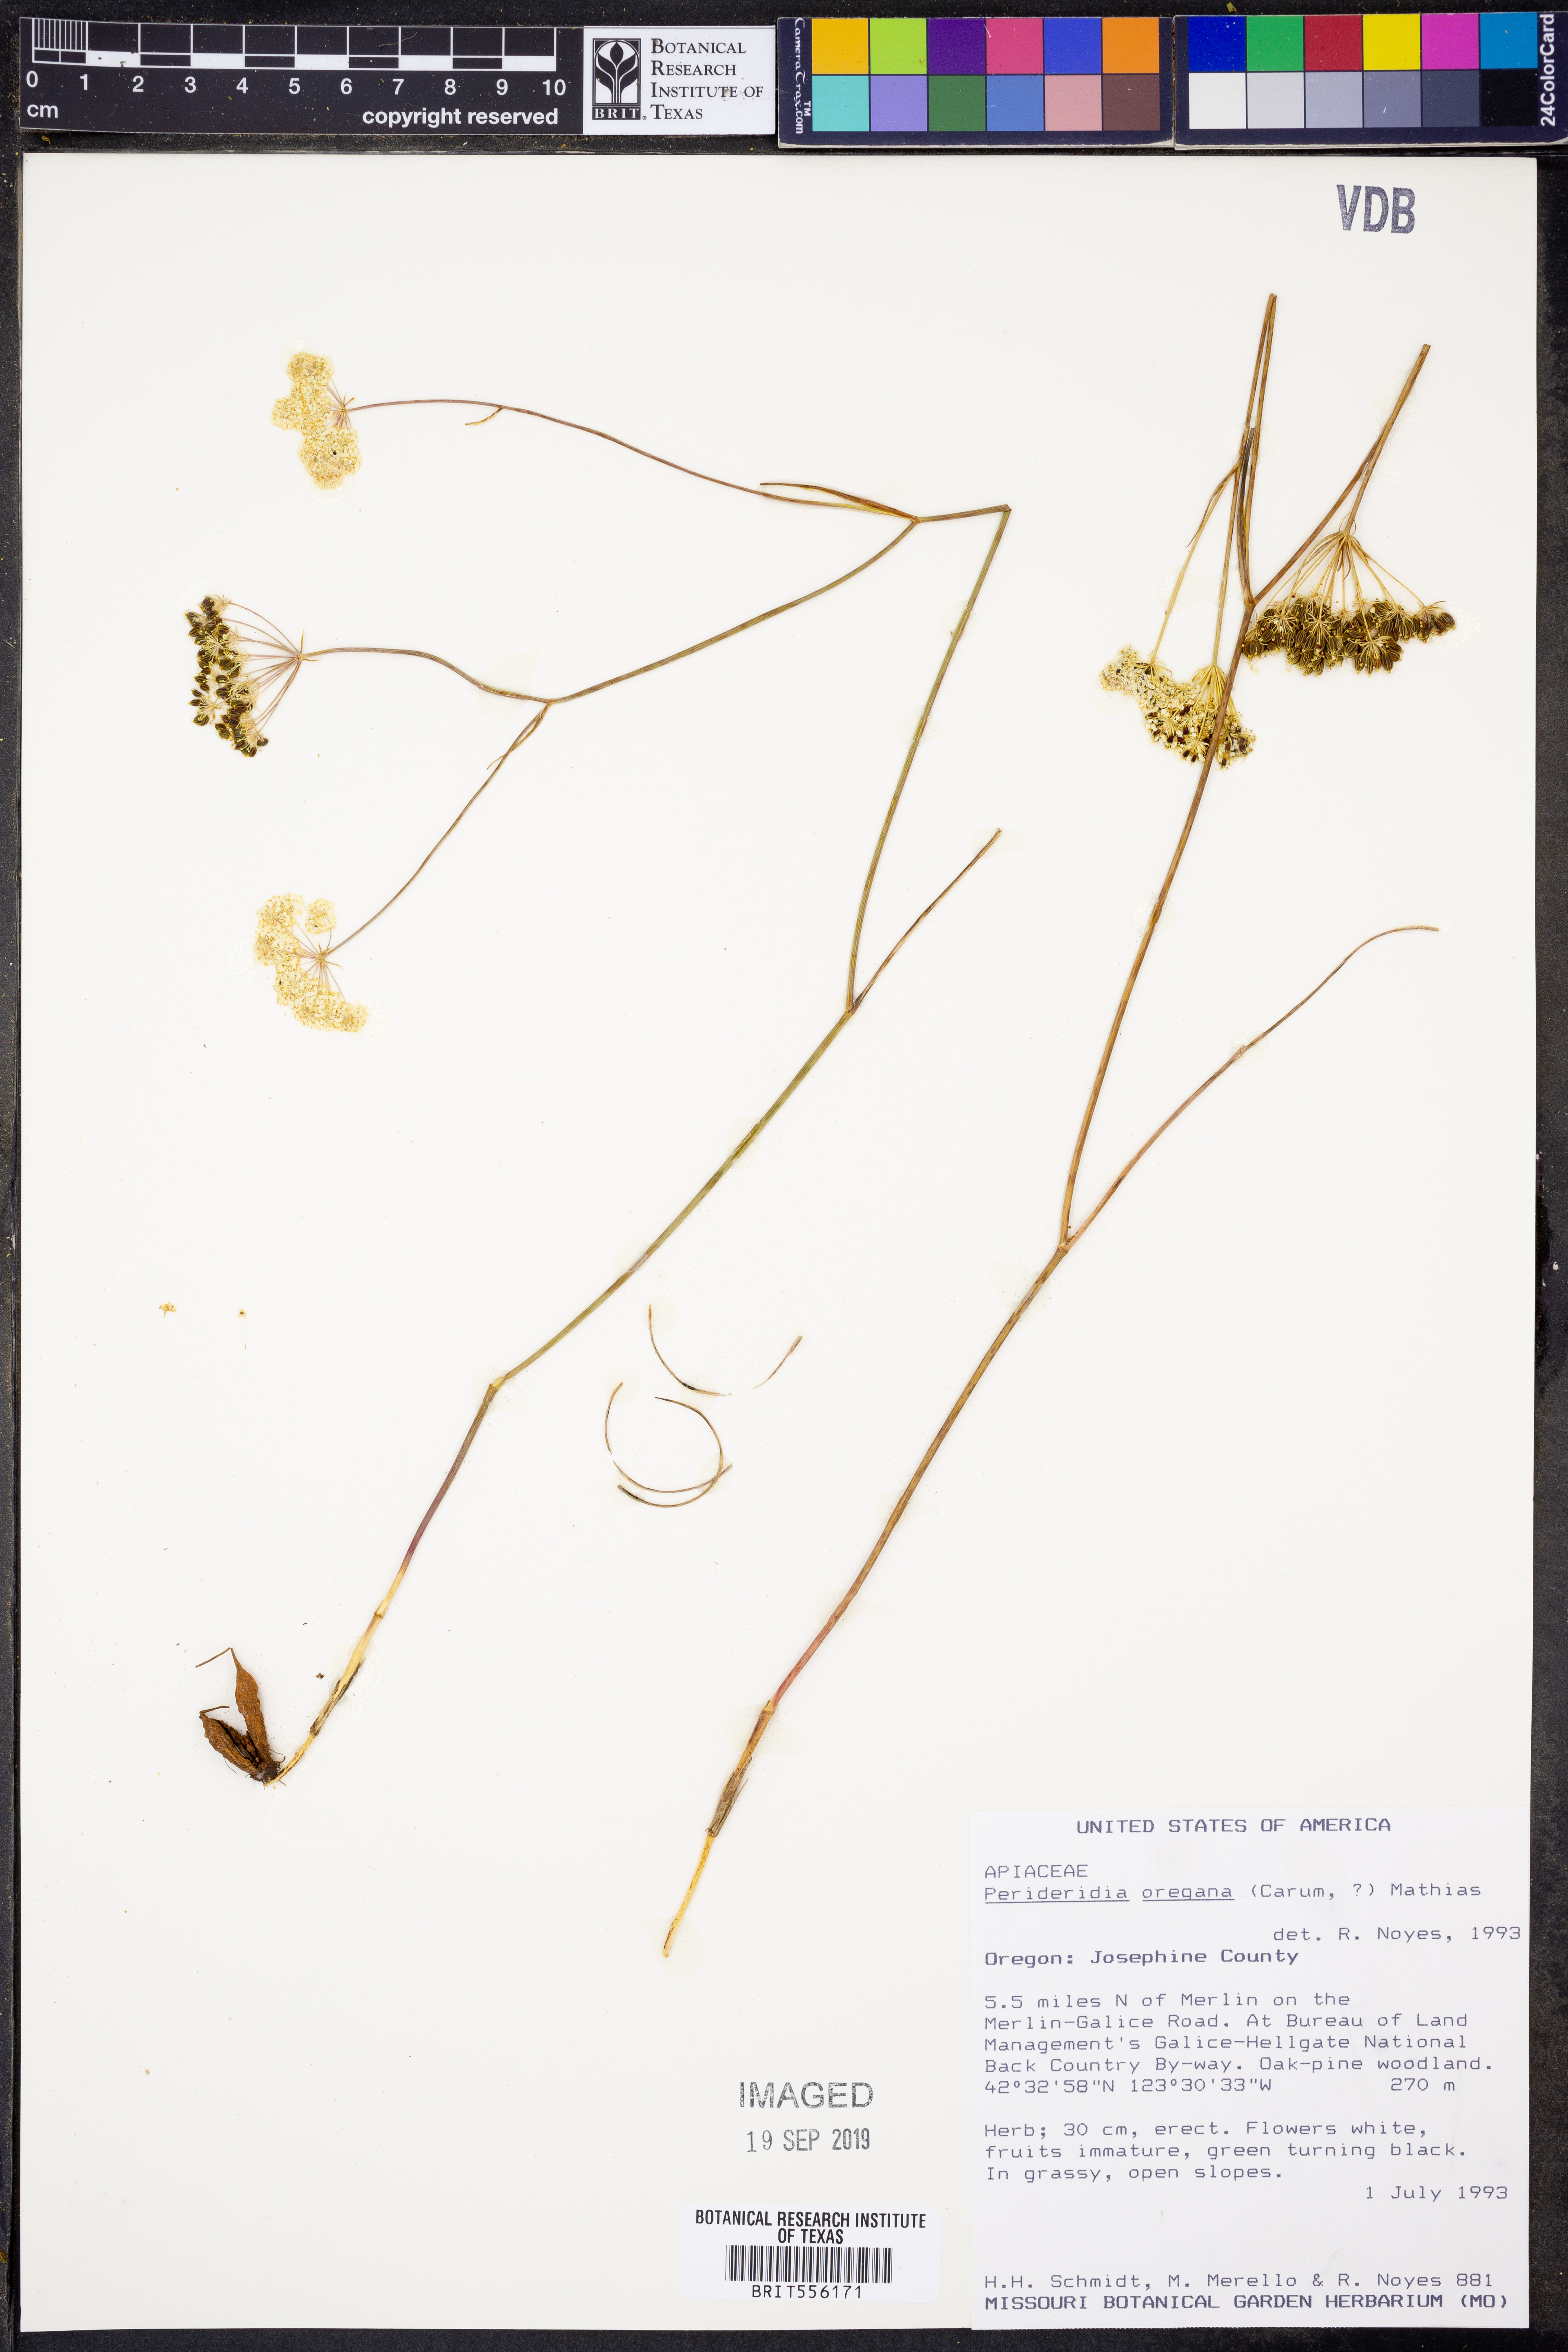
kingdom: Plantae
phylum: Tracheophyta
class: Magnoliopsida
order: Apiales
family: Apiaceae
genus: Perideridia
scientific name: Perideridia oregana
